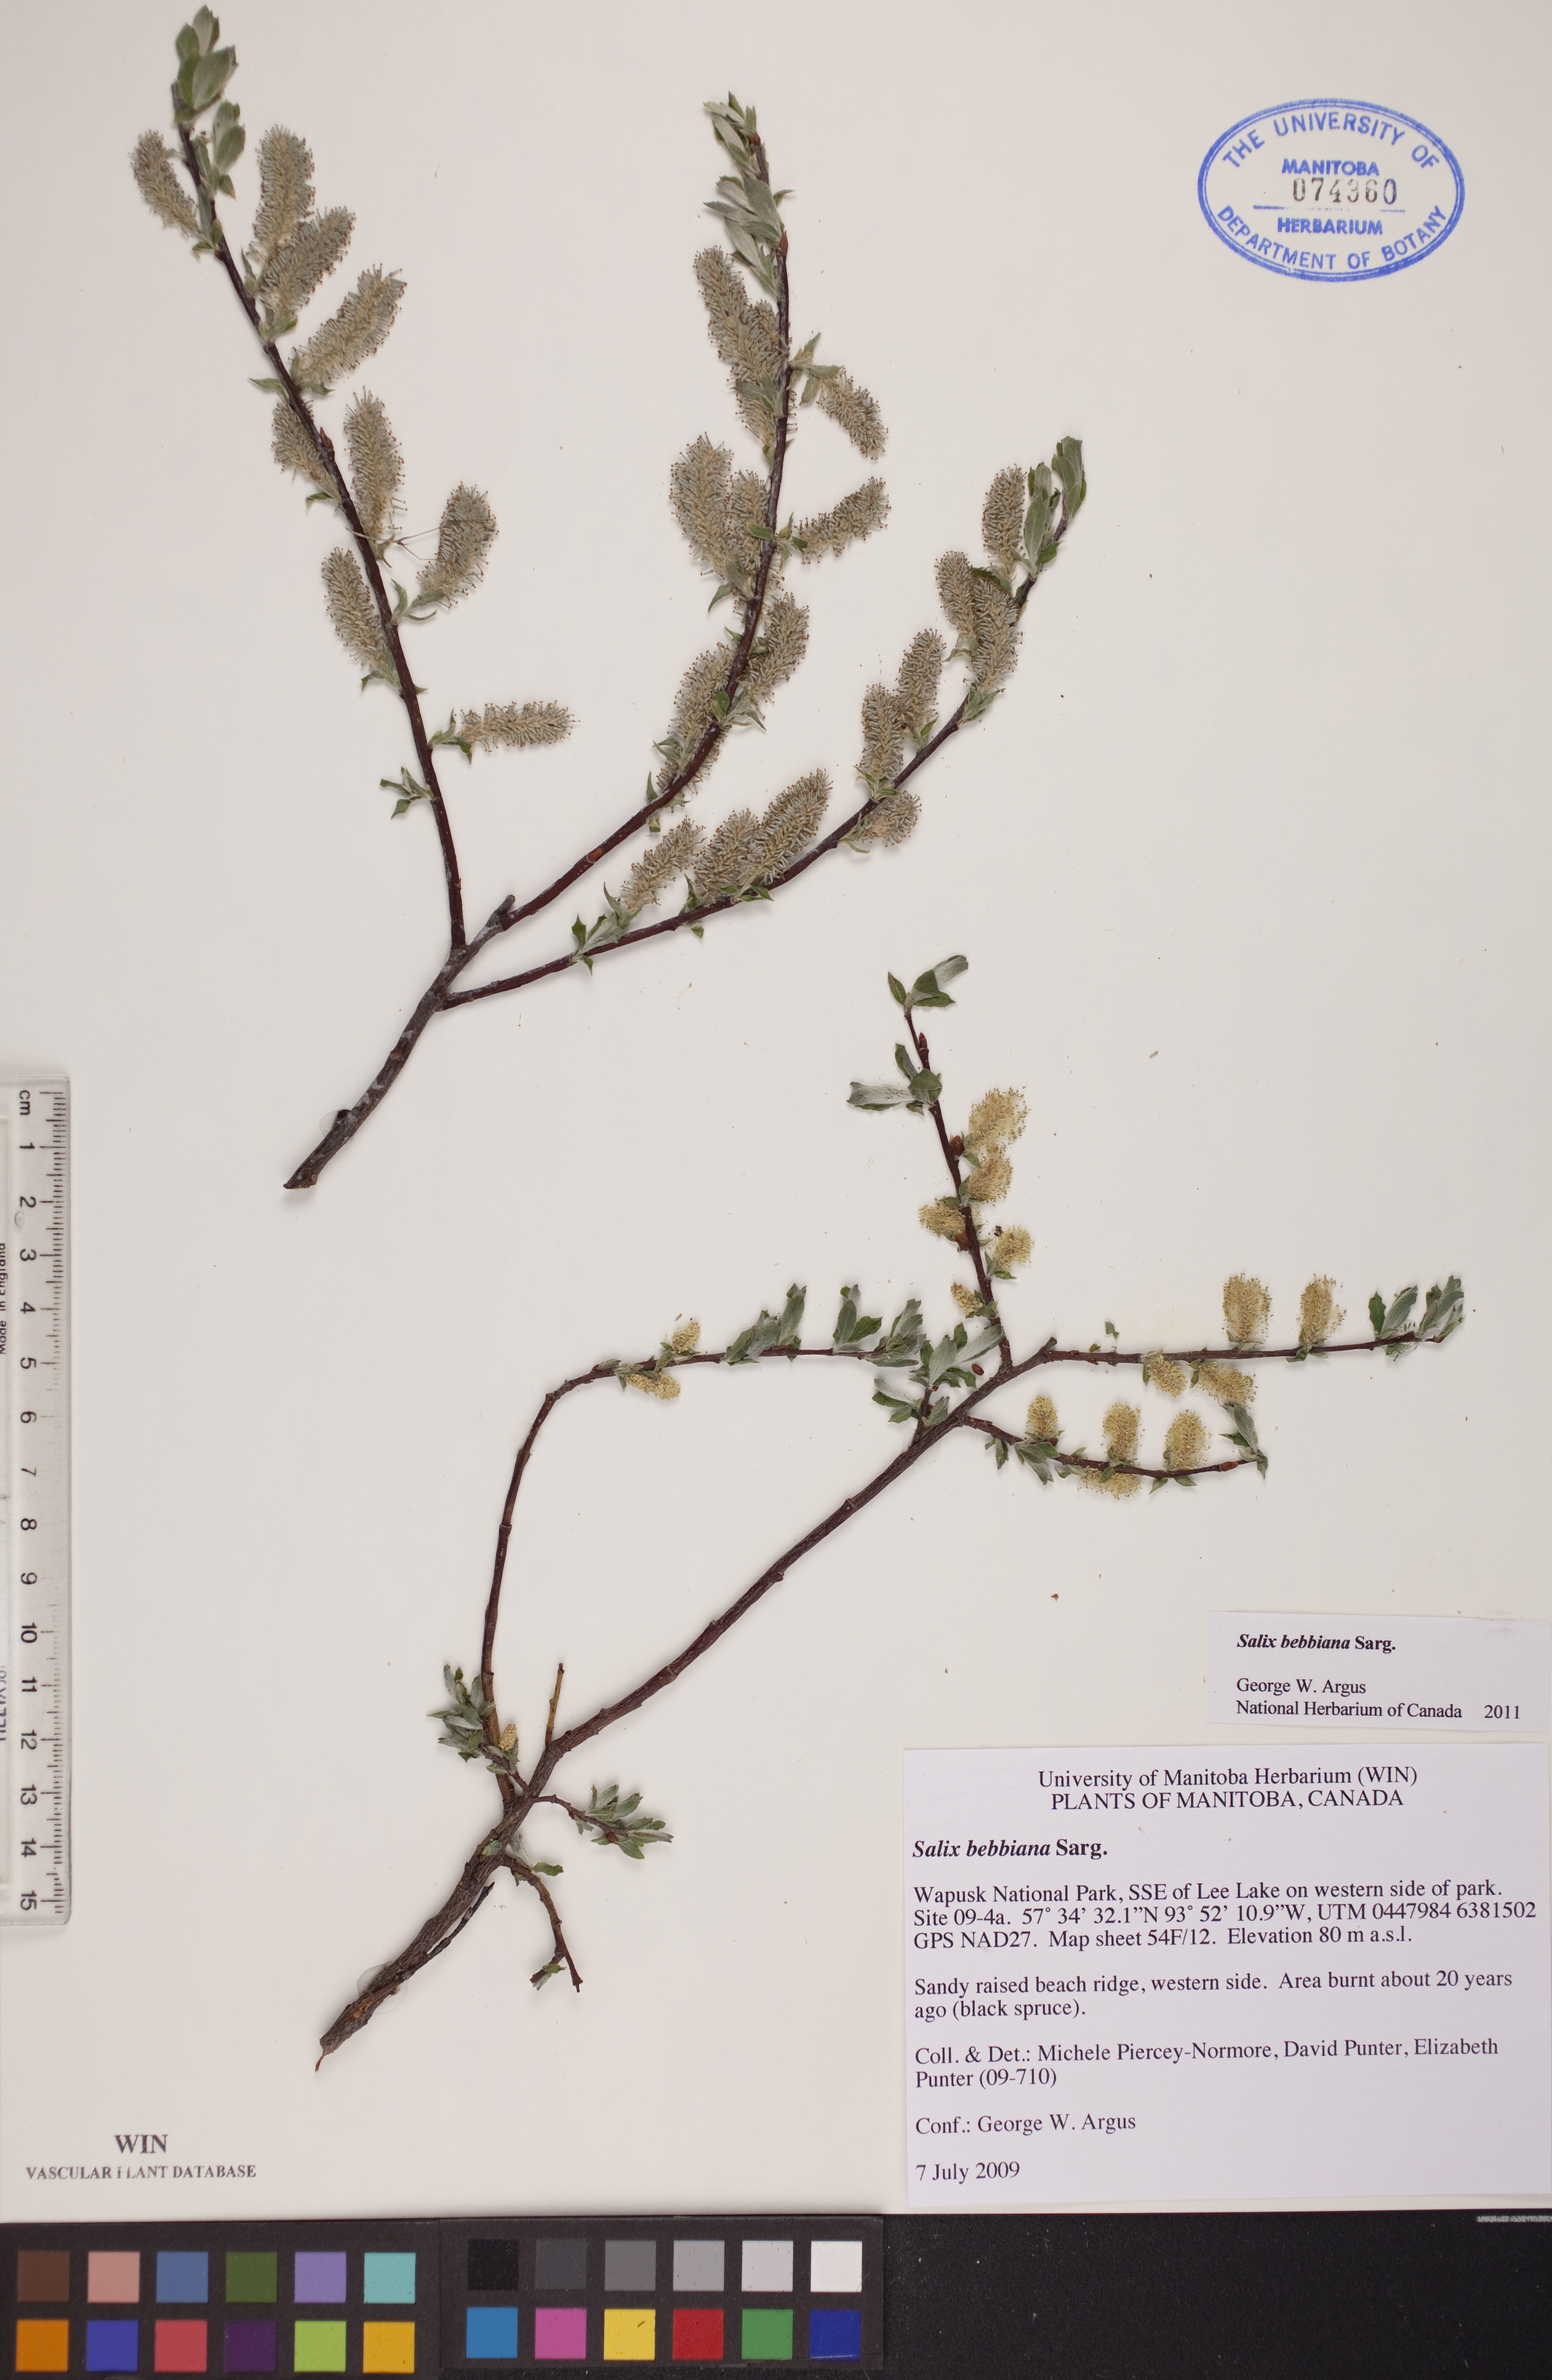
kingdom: Plantae
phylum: Tracheophyta
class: Magnoliopsida
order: Malpighiales
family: Salicaceae
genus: Salix
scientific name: Salix bebbiana
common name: Bebb's willow
